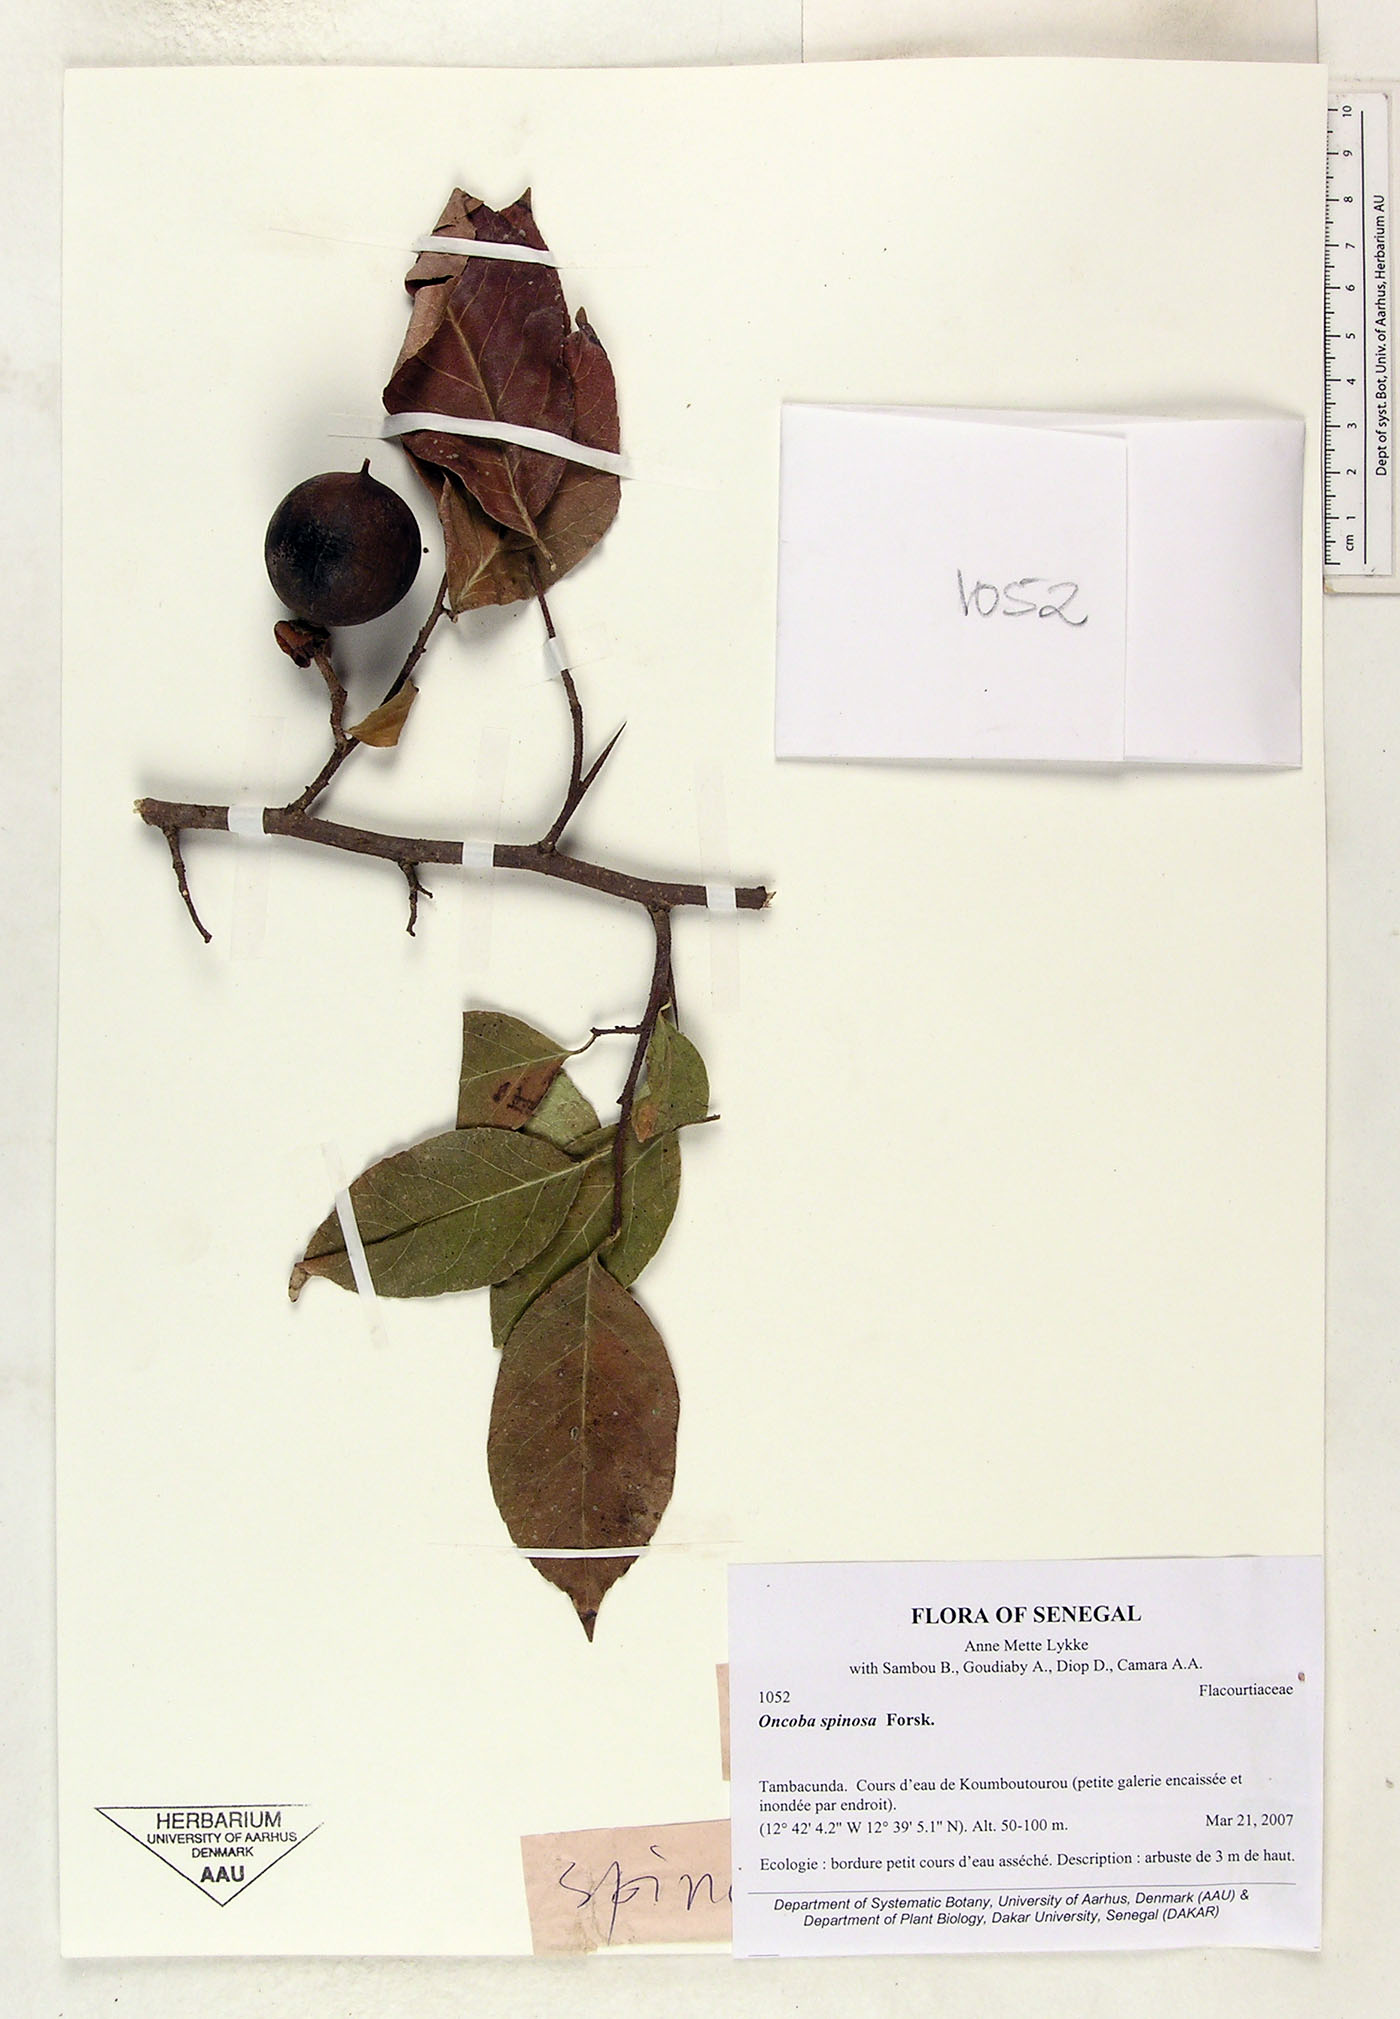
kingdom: Plantae
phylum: Tracheophyta
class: Magnoliopsida
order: Malpighiales
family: Salicaceae
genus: Oncoba
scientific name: Oncoba spinosa
